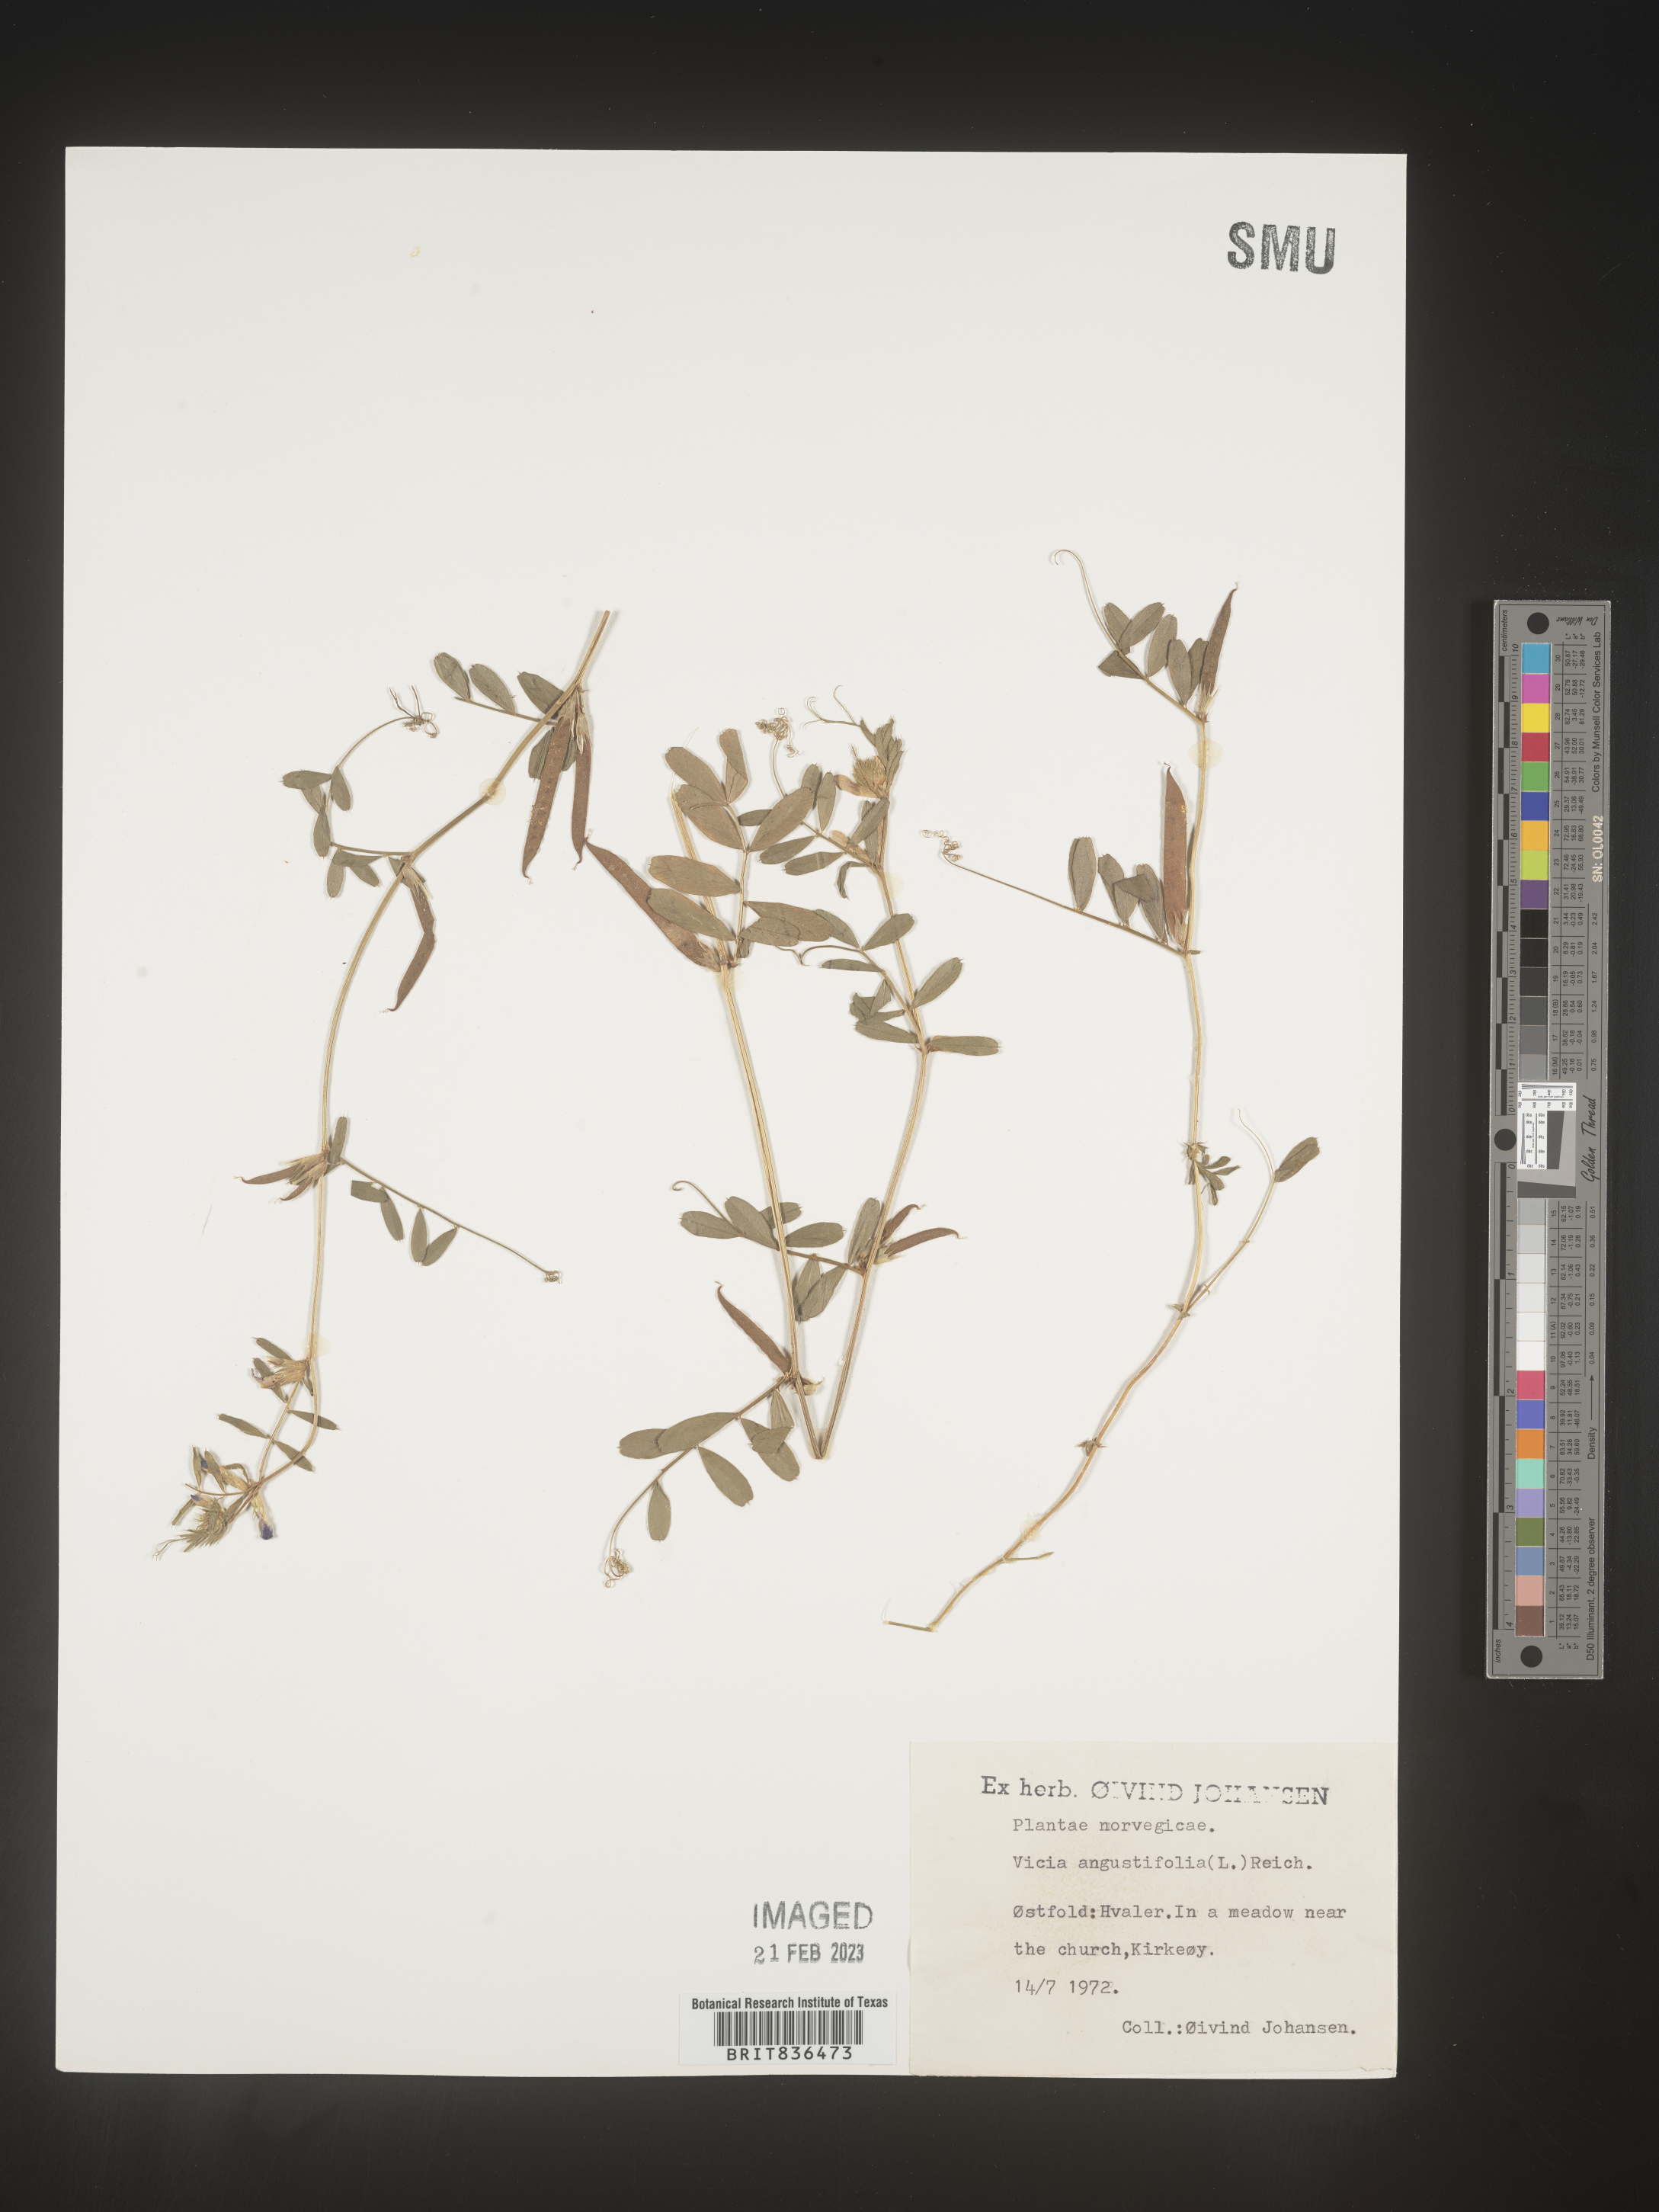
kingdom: Plantae
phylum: Tracheophyta
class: Magnoliopsida
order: Fabales
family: Fabaceae
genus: Vicia
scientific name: Vicia
